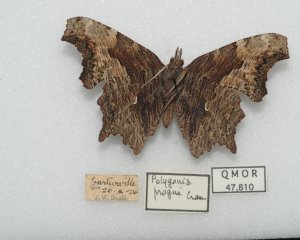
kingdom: Animalia
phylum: Arthropoda
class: Insecta
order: Lepidoptera
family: Nymphalidae
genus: Polygonia
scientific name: Polygonia progne
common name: Gray Comma
